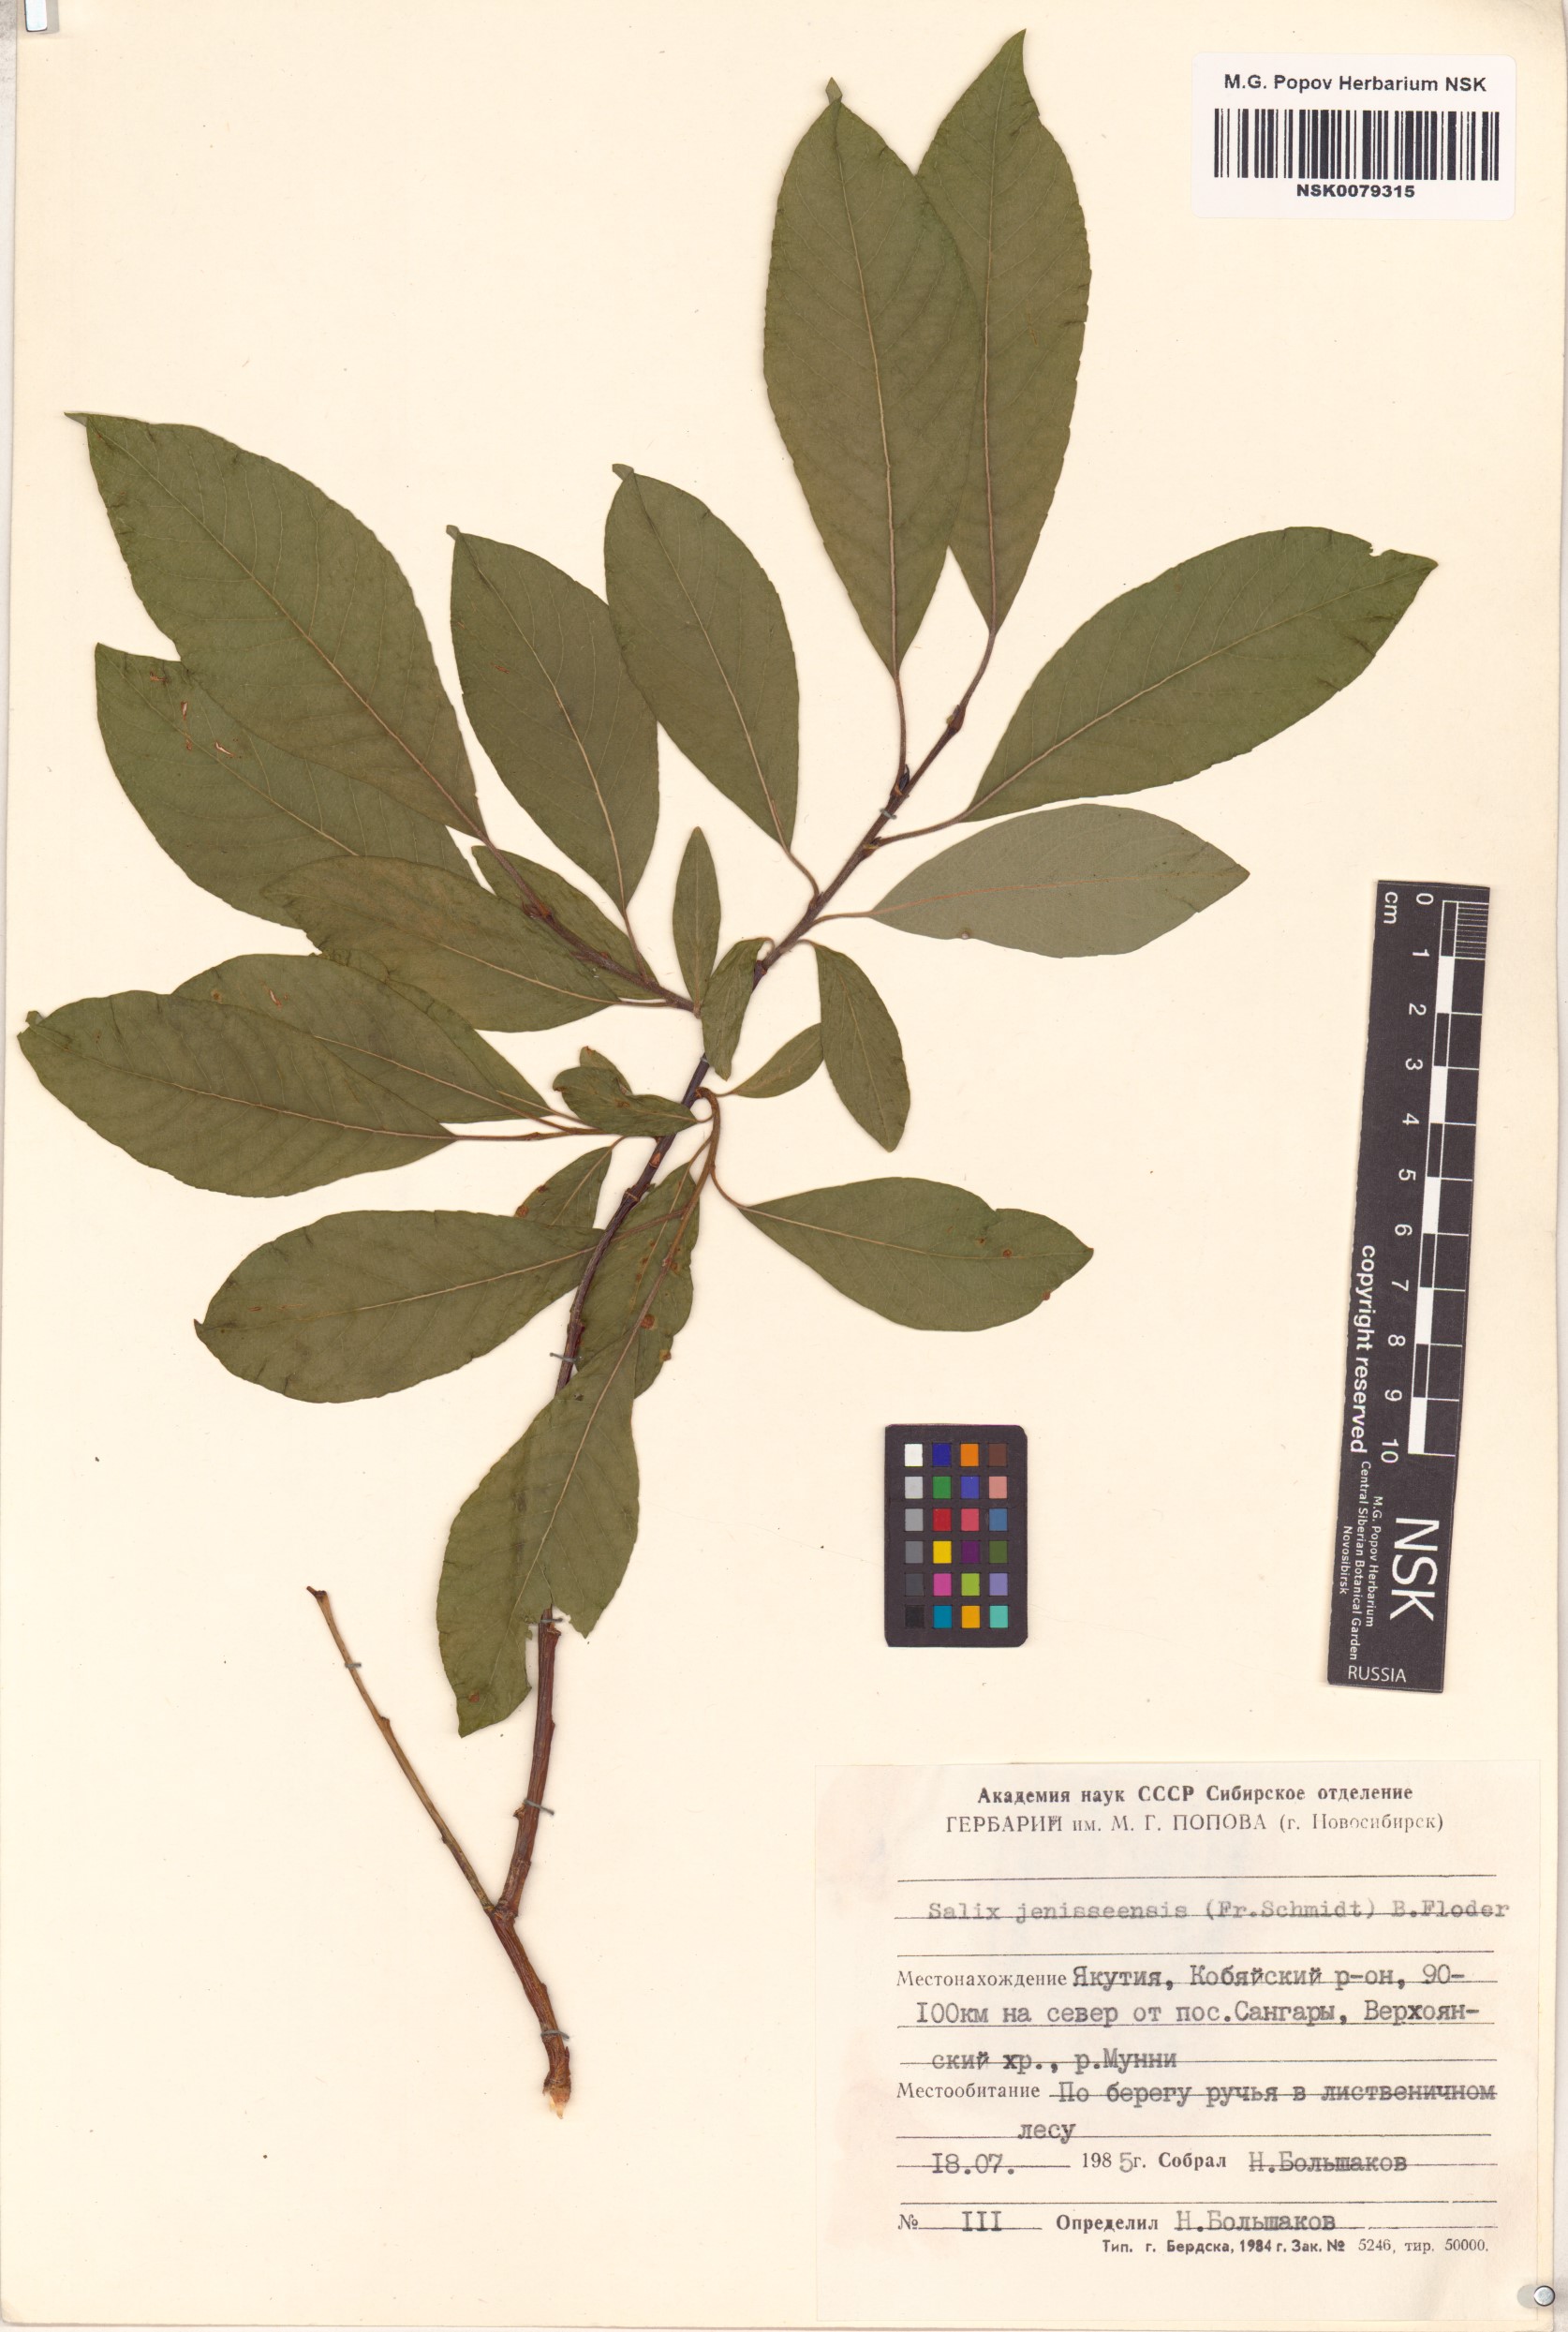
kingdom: Plantae
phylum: Tracheophyta
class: Magnoliopsida
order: Malpighiales
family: Salicaceae
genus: Salix
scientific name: Salix jenisseensis
